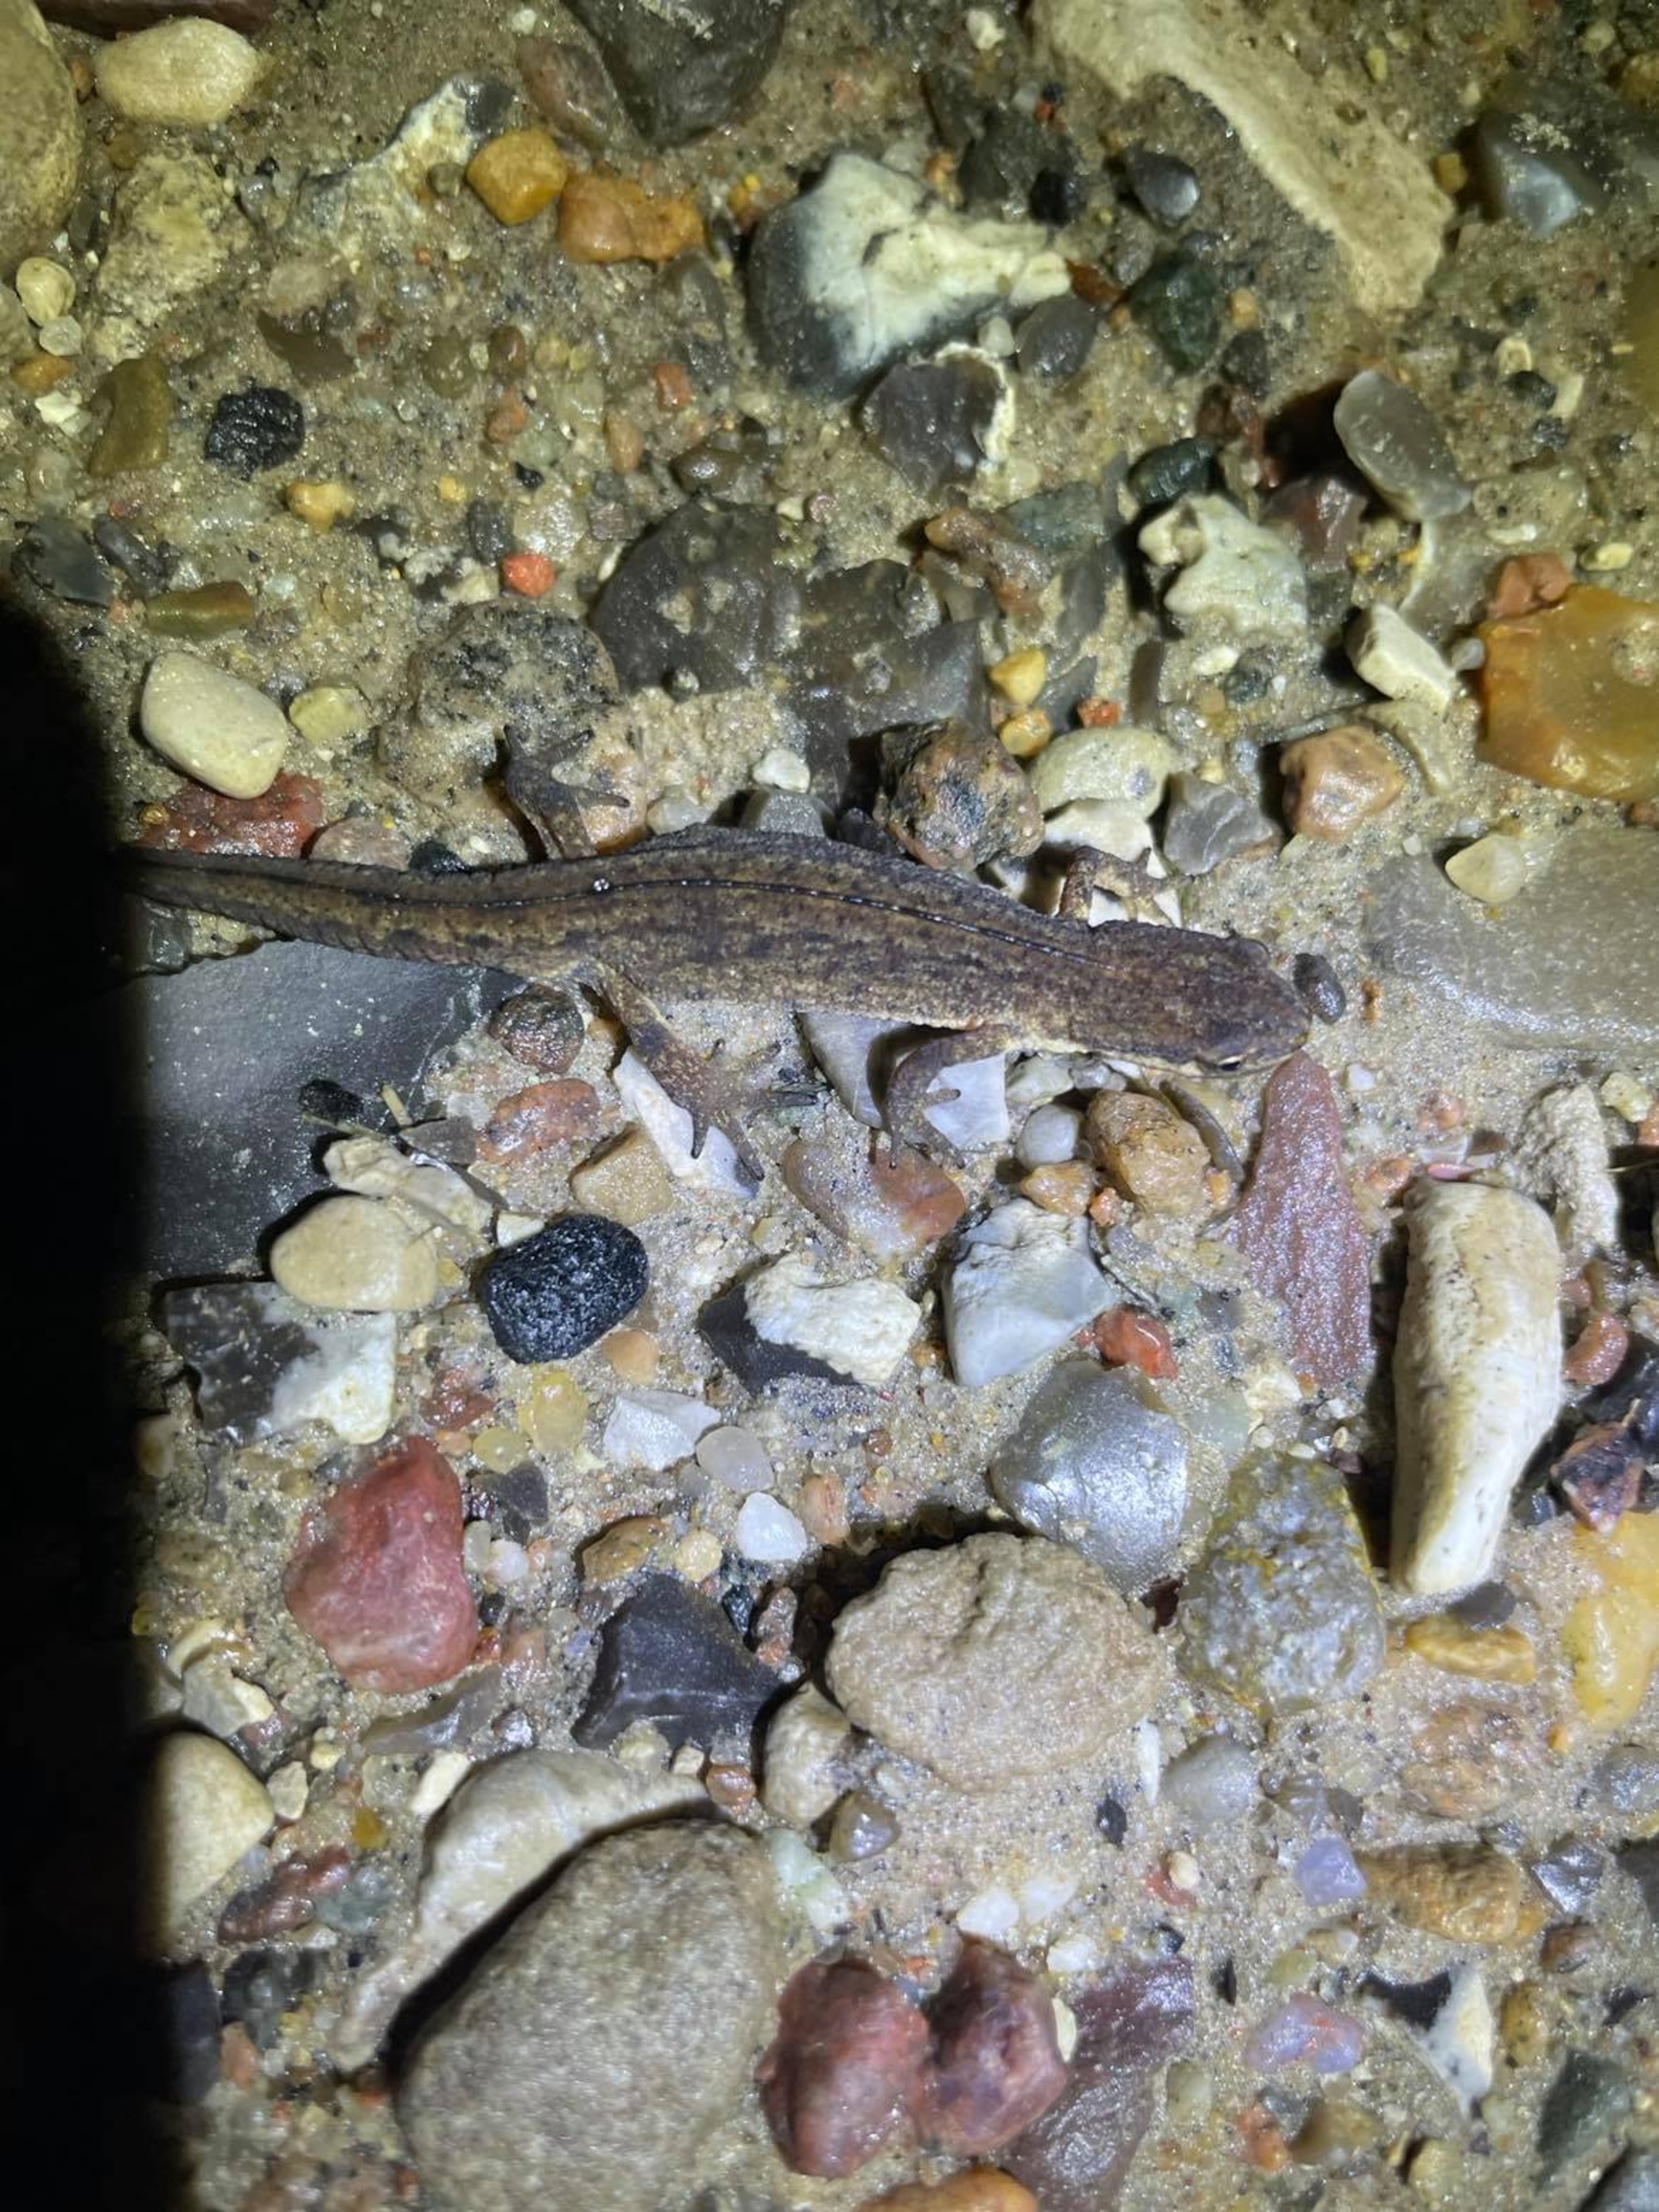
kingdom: Animalia
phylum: Chordata
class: Amphibia
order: Caudata
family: Salamandridae
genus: Lissotriton
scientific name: Lissotriton vulgaris
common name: Lille vandsalamander
